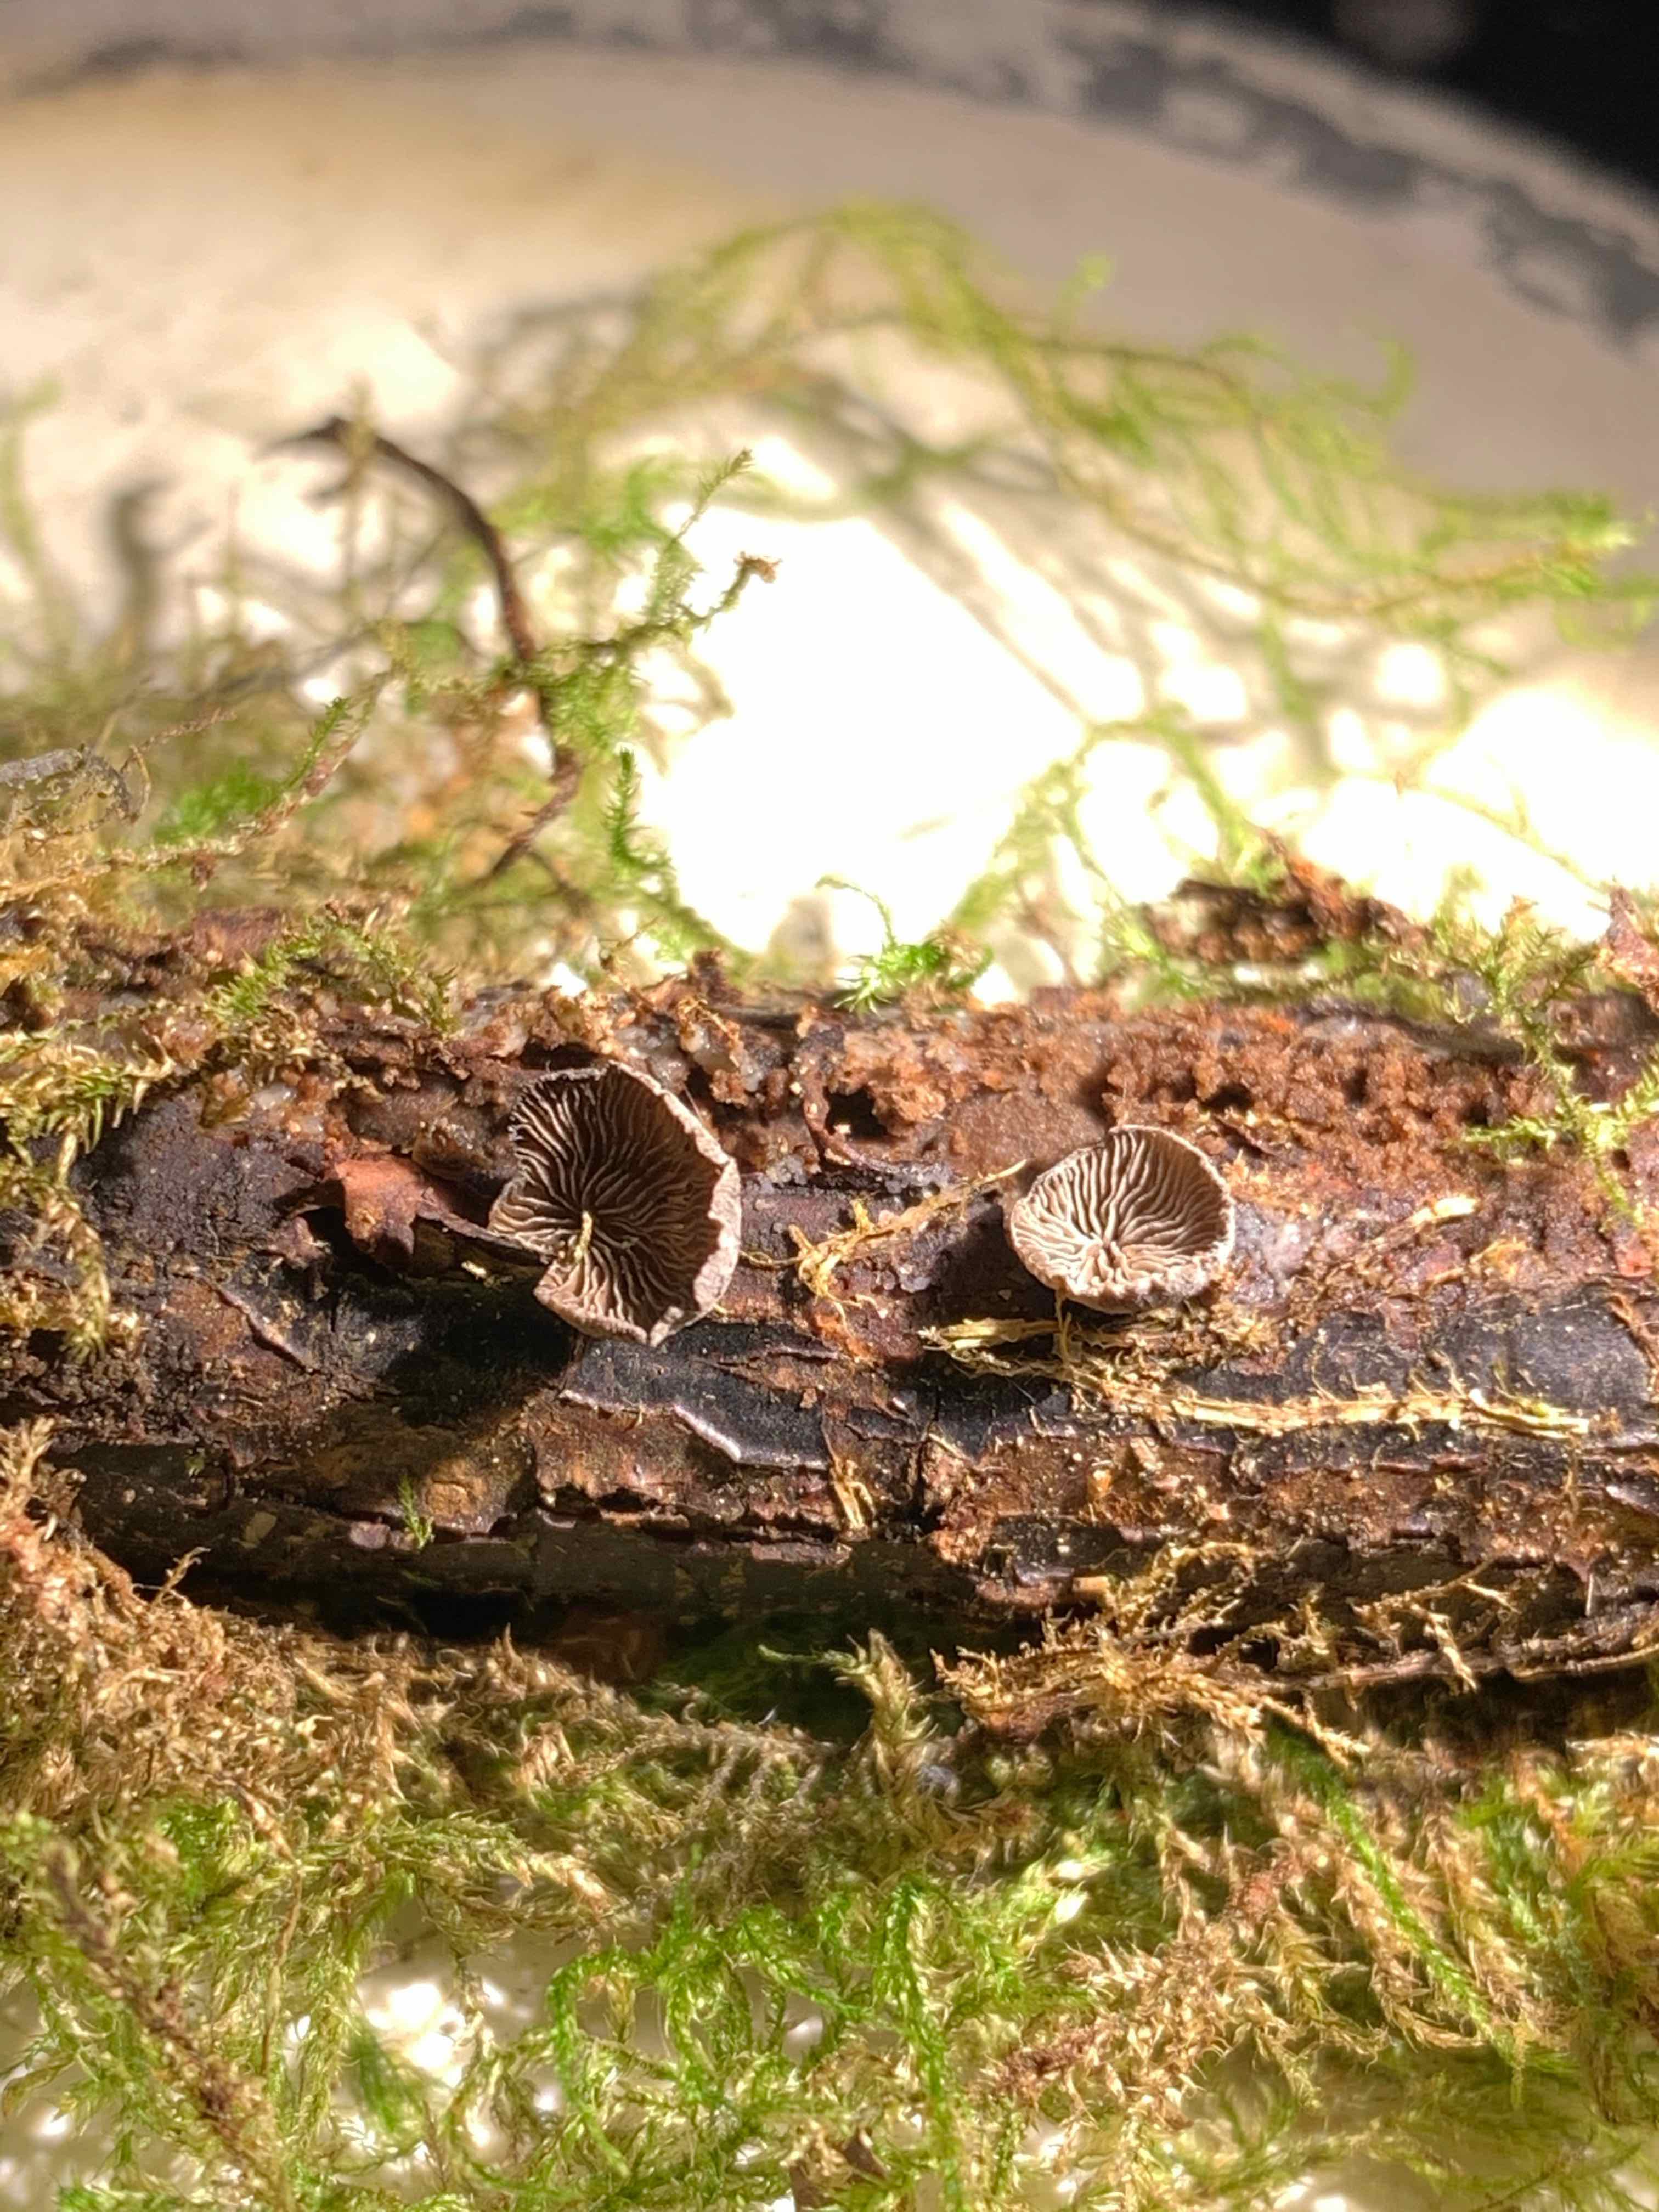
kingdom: Fungi
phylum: Basidiomycota
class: Agaricomycetes
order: Agaricales
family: Pleurotaceae
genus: Resupinatus
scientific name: Resupinatus trichotis
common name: mørkfiltet barkhat
